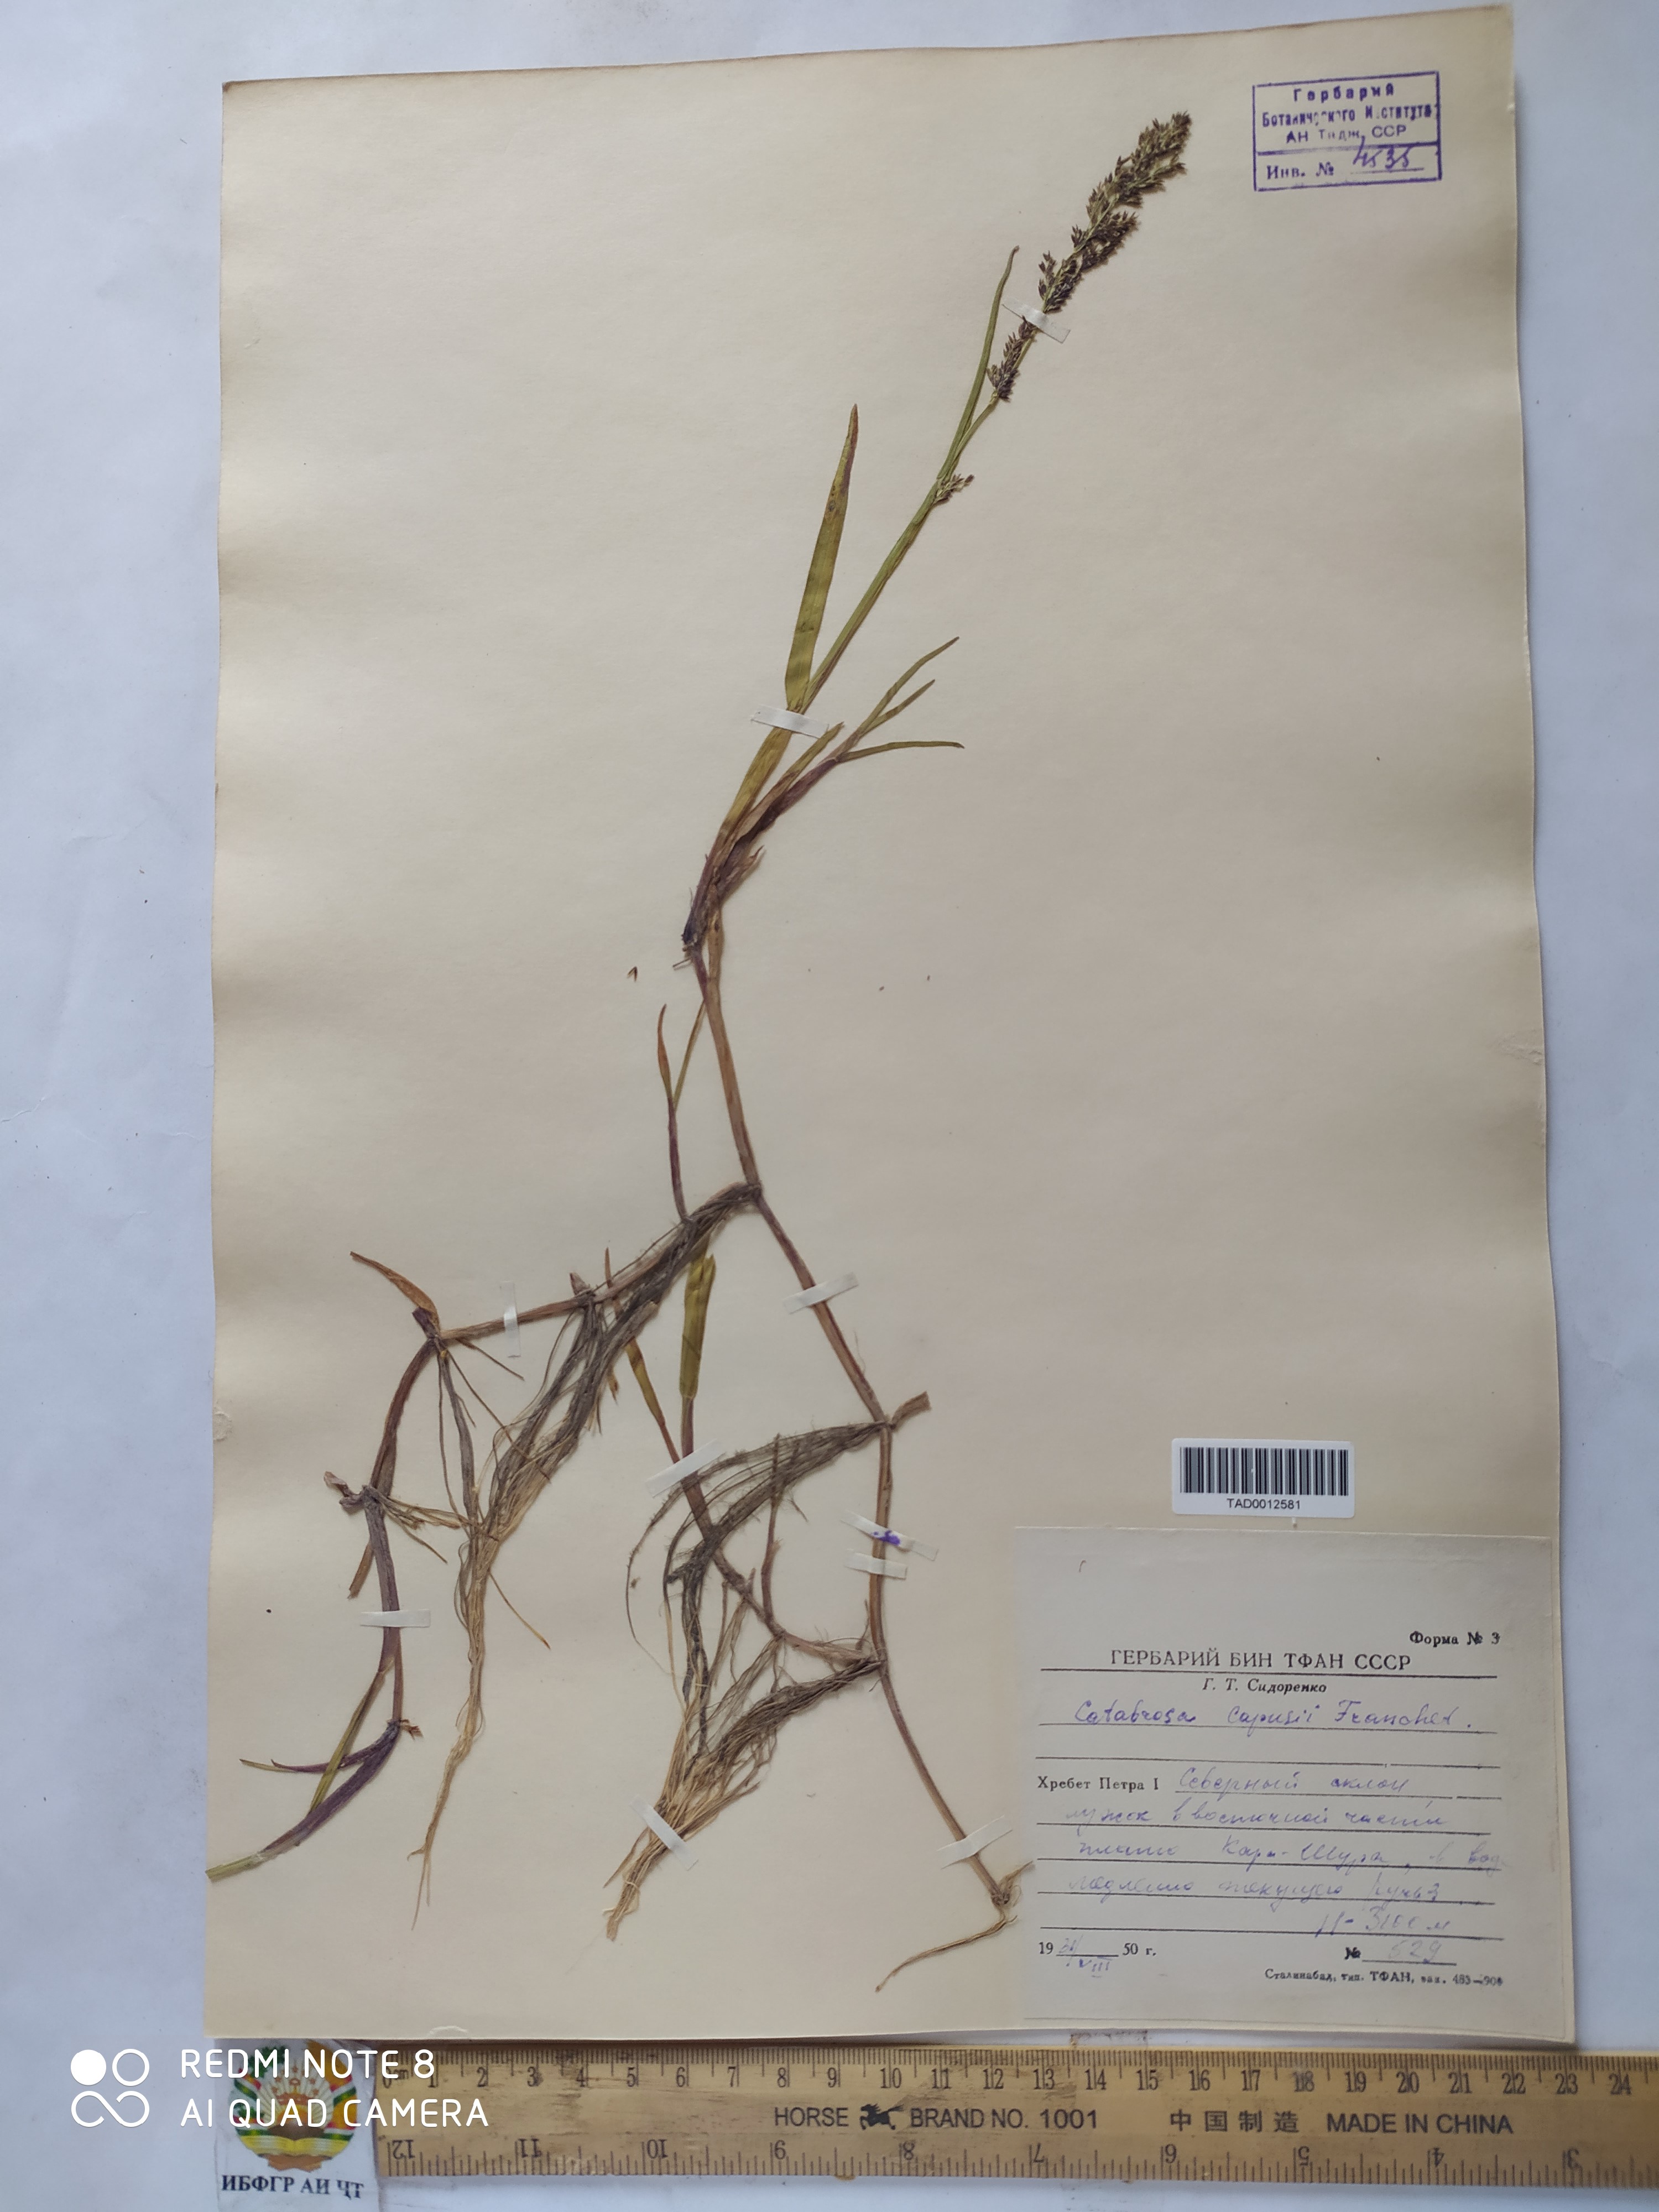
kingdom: Plantae
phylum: Tracheophyta
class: Liliopsida
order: Poales
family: Poaceae
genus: Catabrosa
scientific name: Catabrosa aquatica
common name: Whorl-grass
